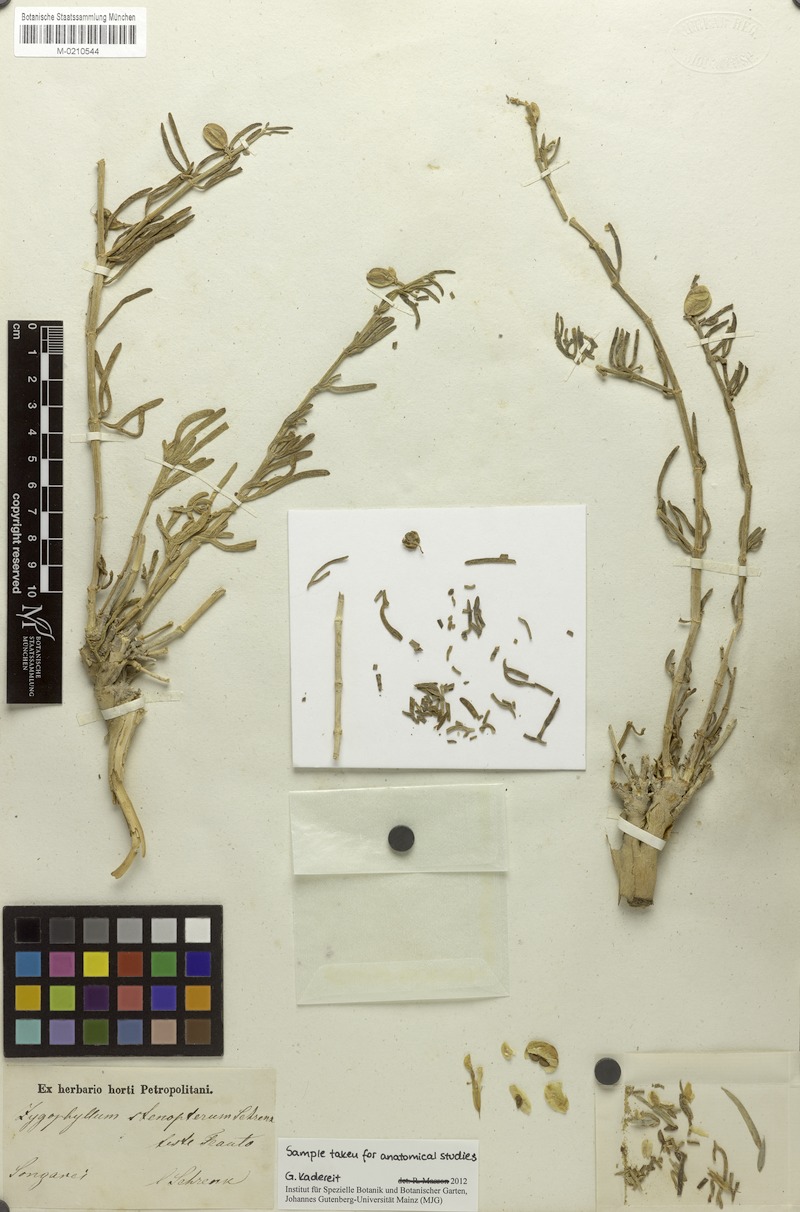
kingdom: Plantae
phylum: Tracheophyta
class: Magnoliopsida
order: Zygophyllales
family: Zygophyllaceae
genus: Zygophyllum
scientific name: Zygophyllum stenopterum
